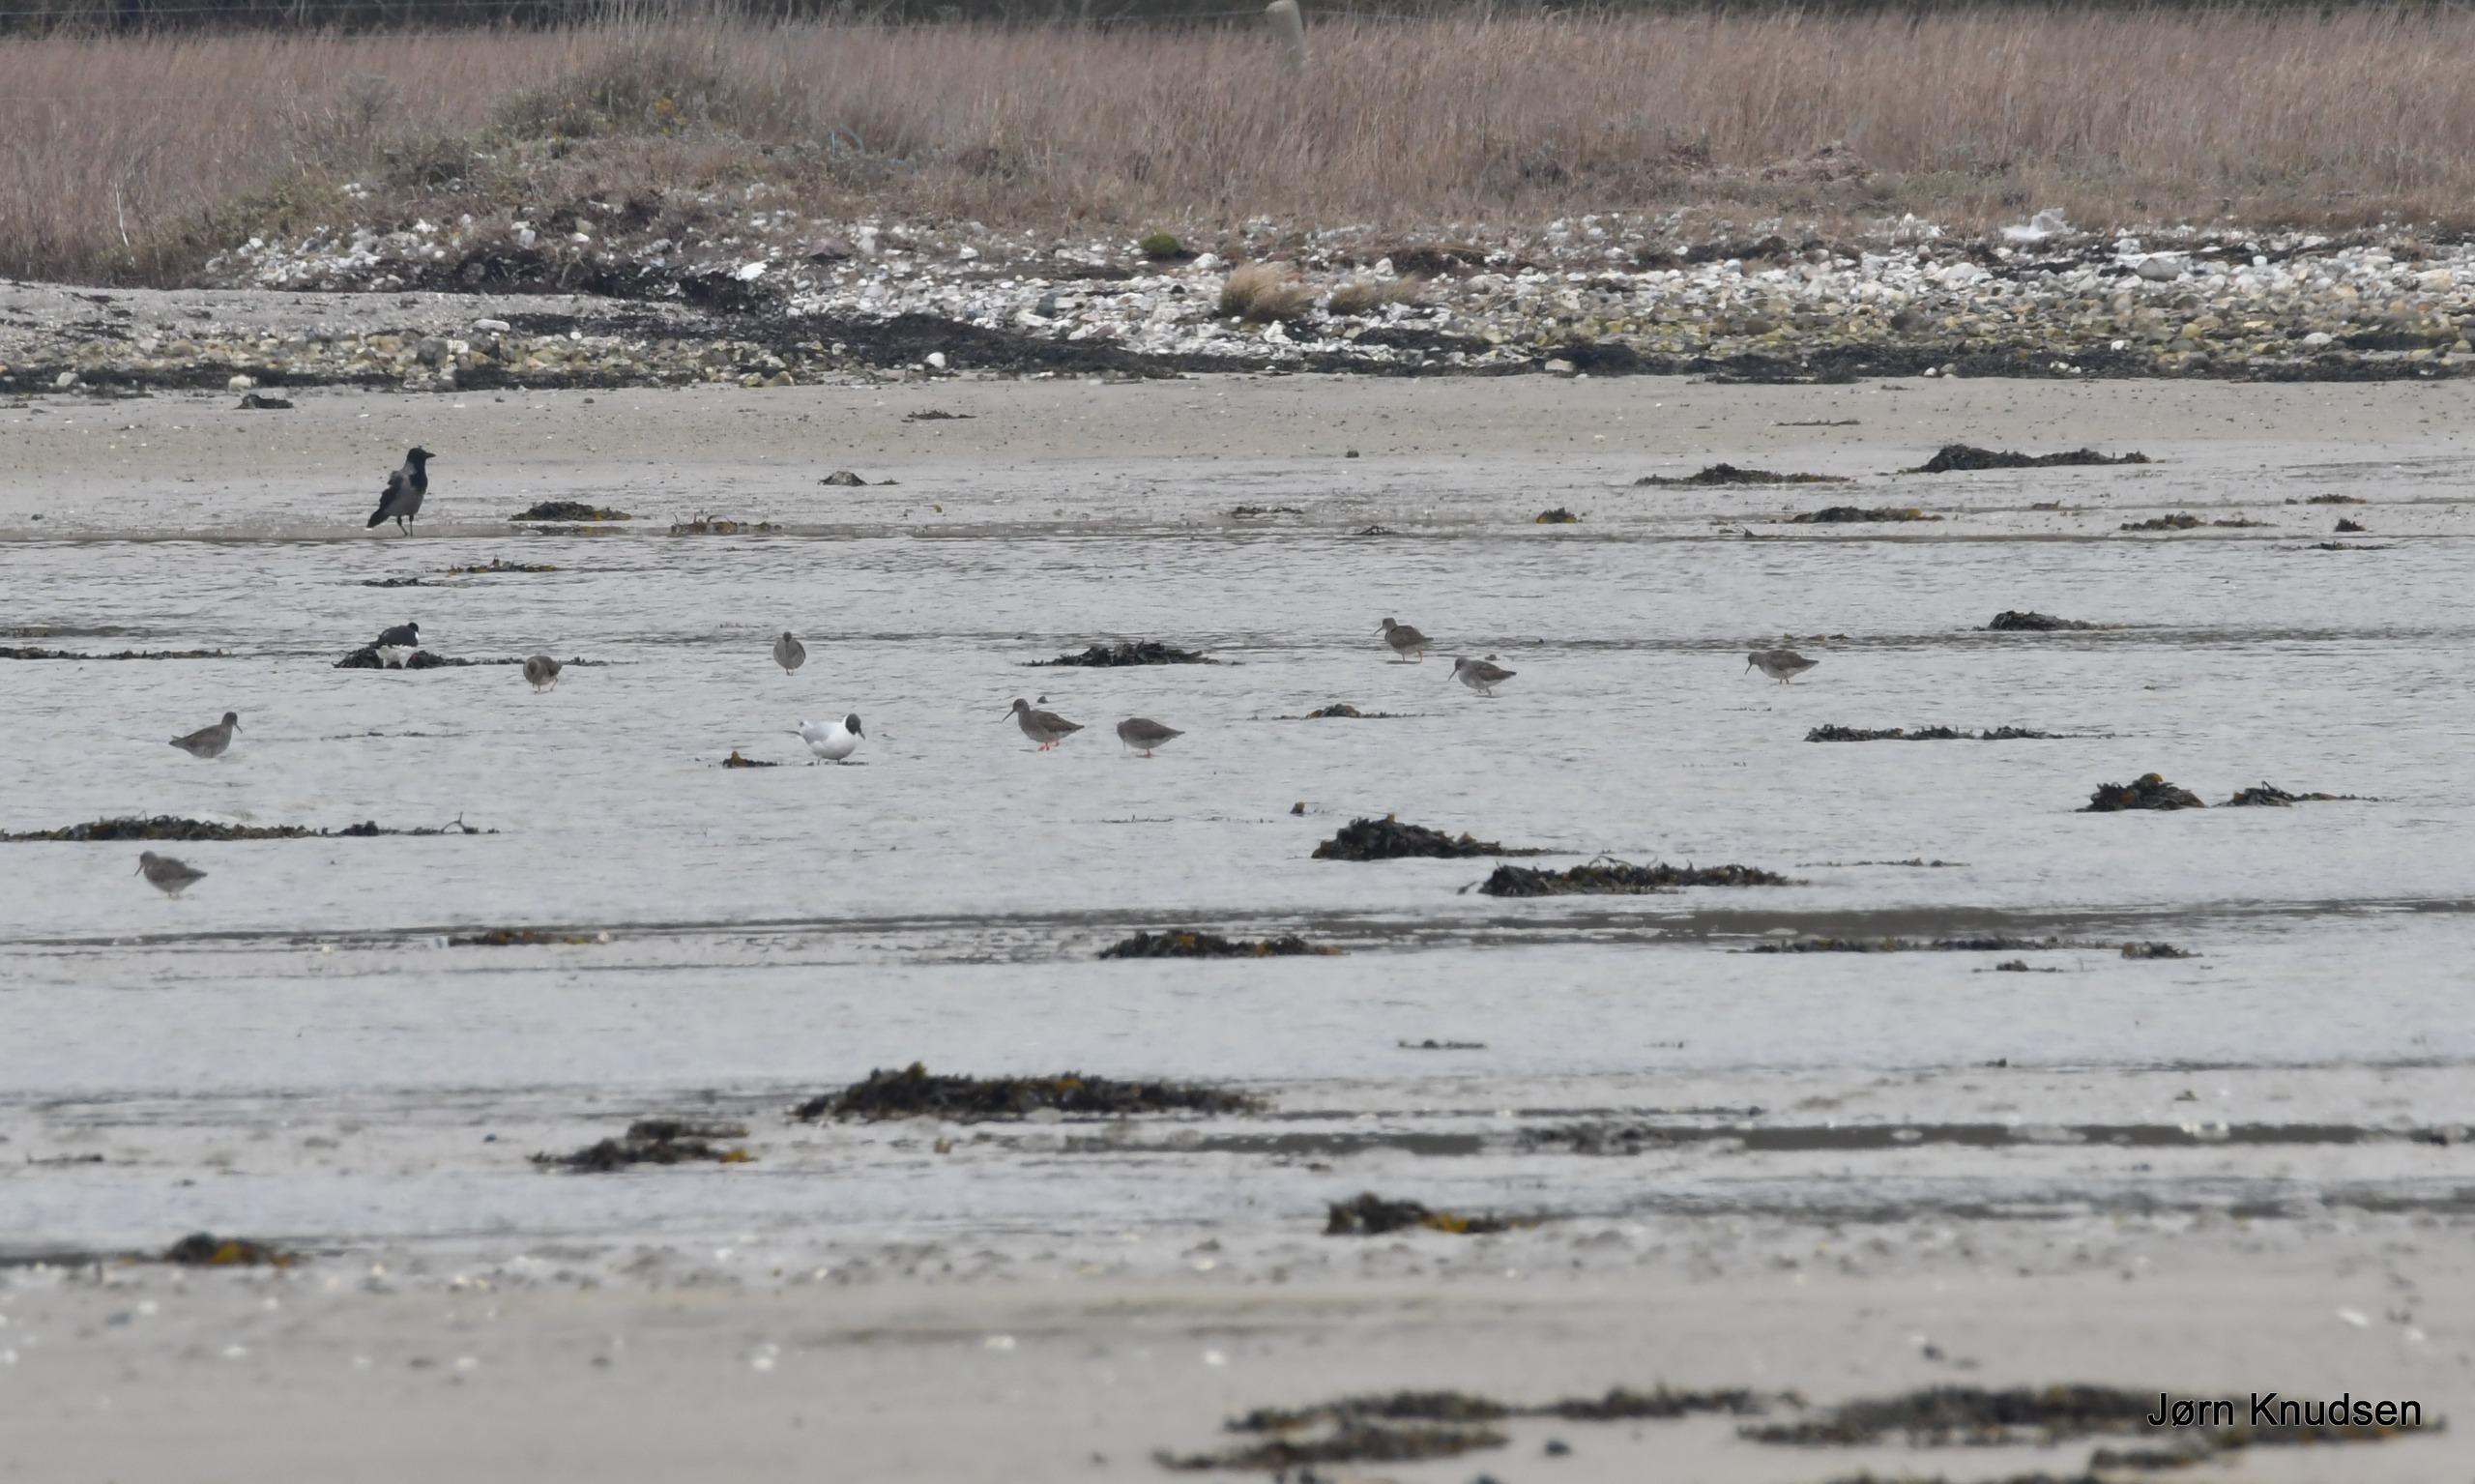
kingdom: Animalia
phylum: Chordata
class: Aves
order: Charadriiformes
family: Scolopacidae
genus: Tringa
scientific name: Tringa totanus
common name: Rødben
